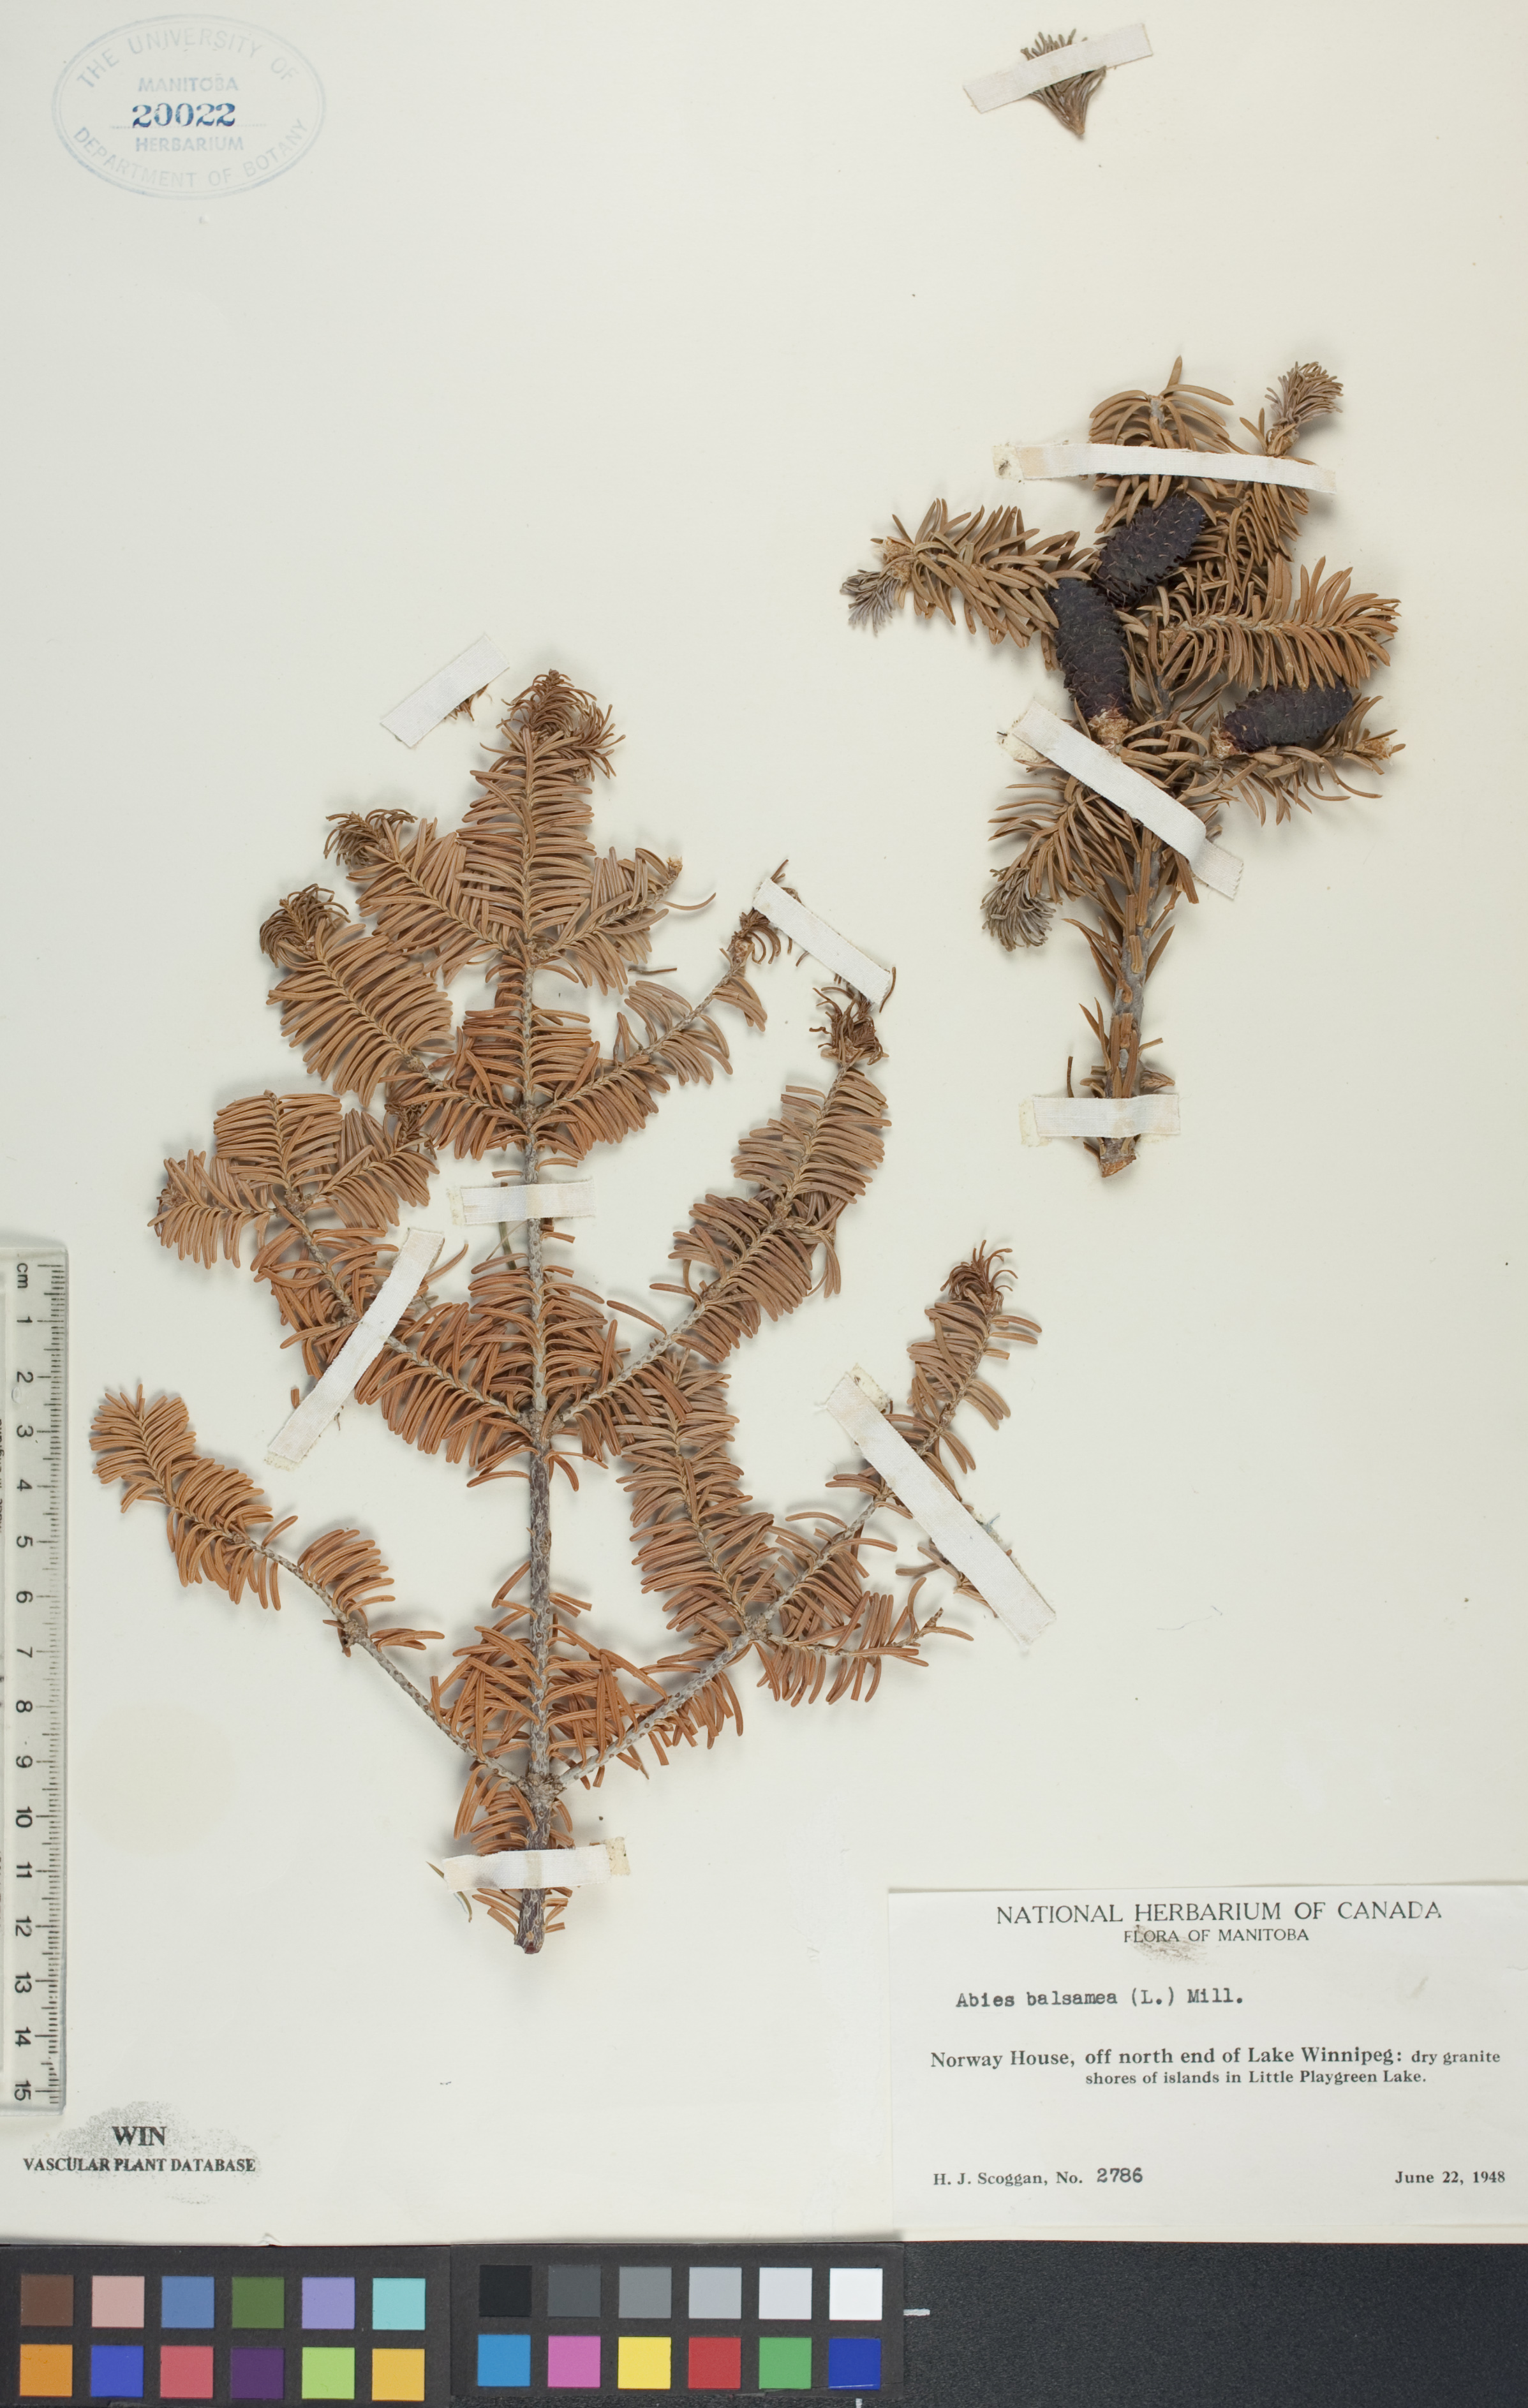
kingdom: Plantae
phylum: Tracheophyta
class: Pinopsida
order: Pinales
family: Pinaceae
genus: Abies
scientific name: Abies balsamea
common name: Balsam fir
